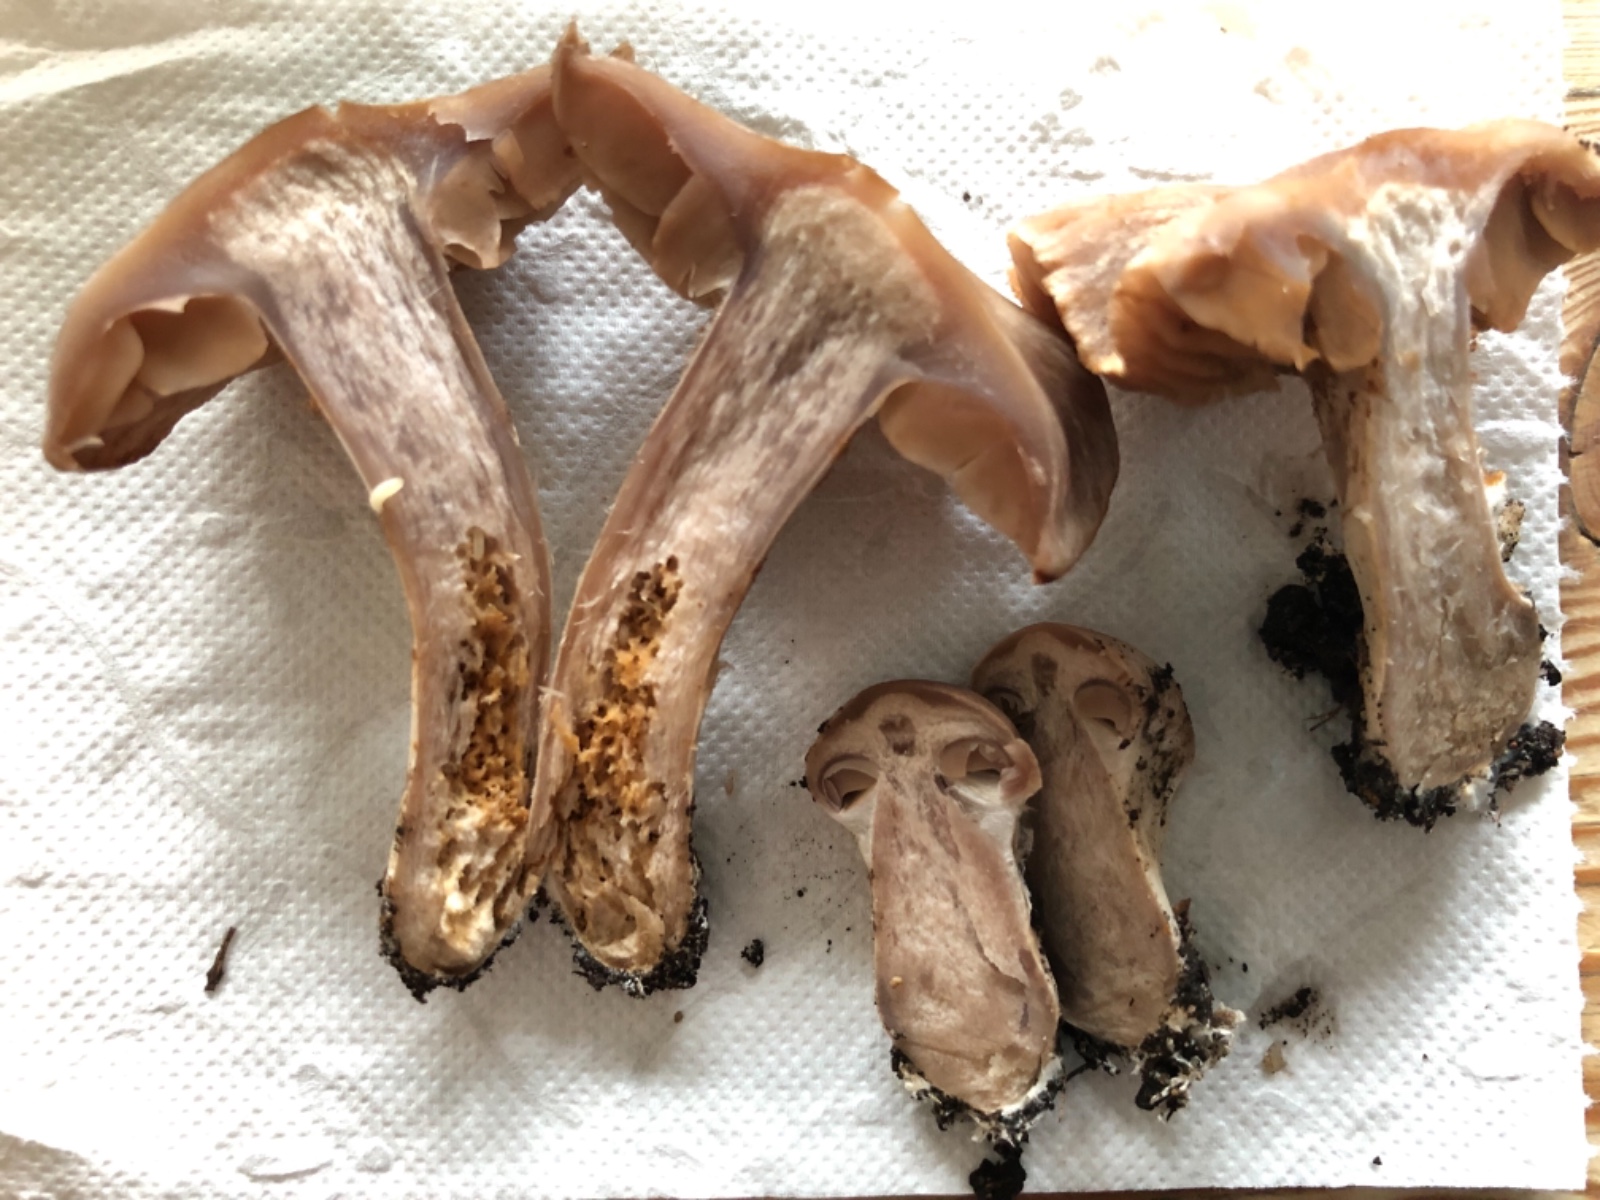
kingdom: Fungi
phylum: Basidiomycota
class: Agaricomycetes
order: Agaricales
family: Cortinariaceae
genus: Cortinarius
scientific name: Cortinarius
